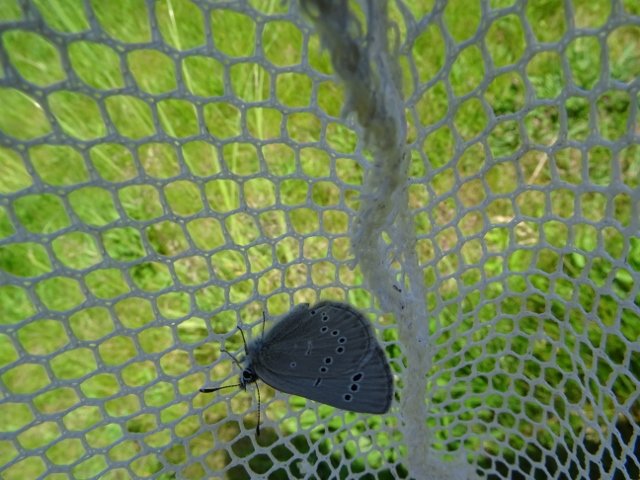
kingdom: Animalia
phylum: Arthropoda
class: Insecta
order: Lepidoptera
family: Lycaenidae
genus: Glaucopsyche
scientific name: Glaucopsyche lygdamus
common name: Silvery Blue
